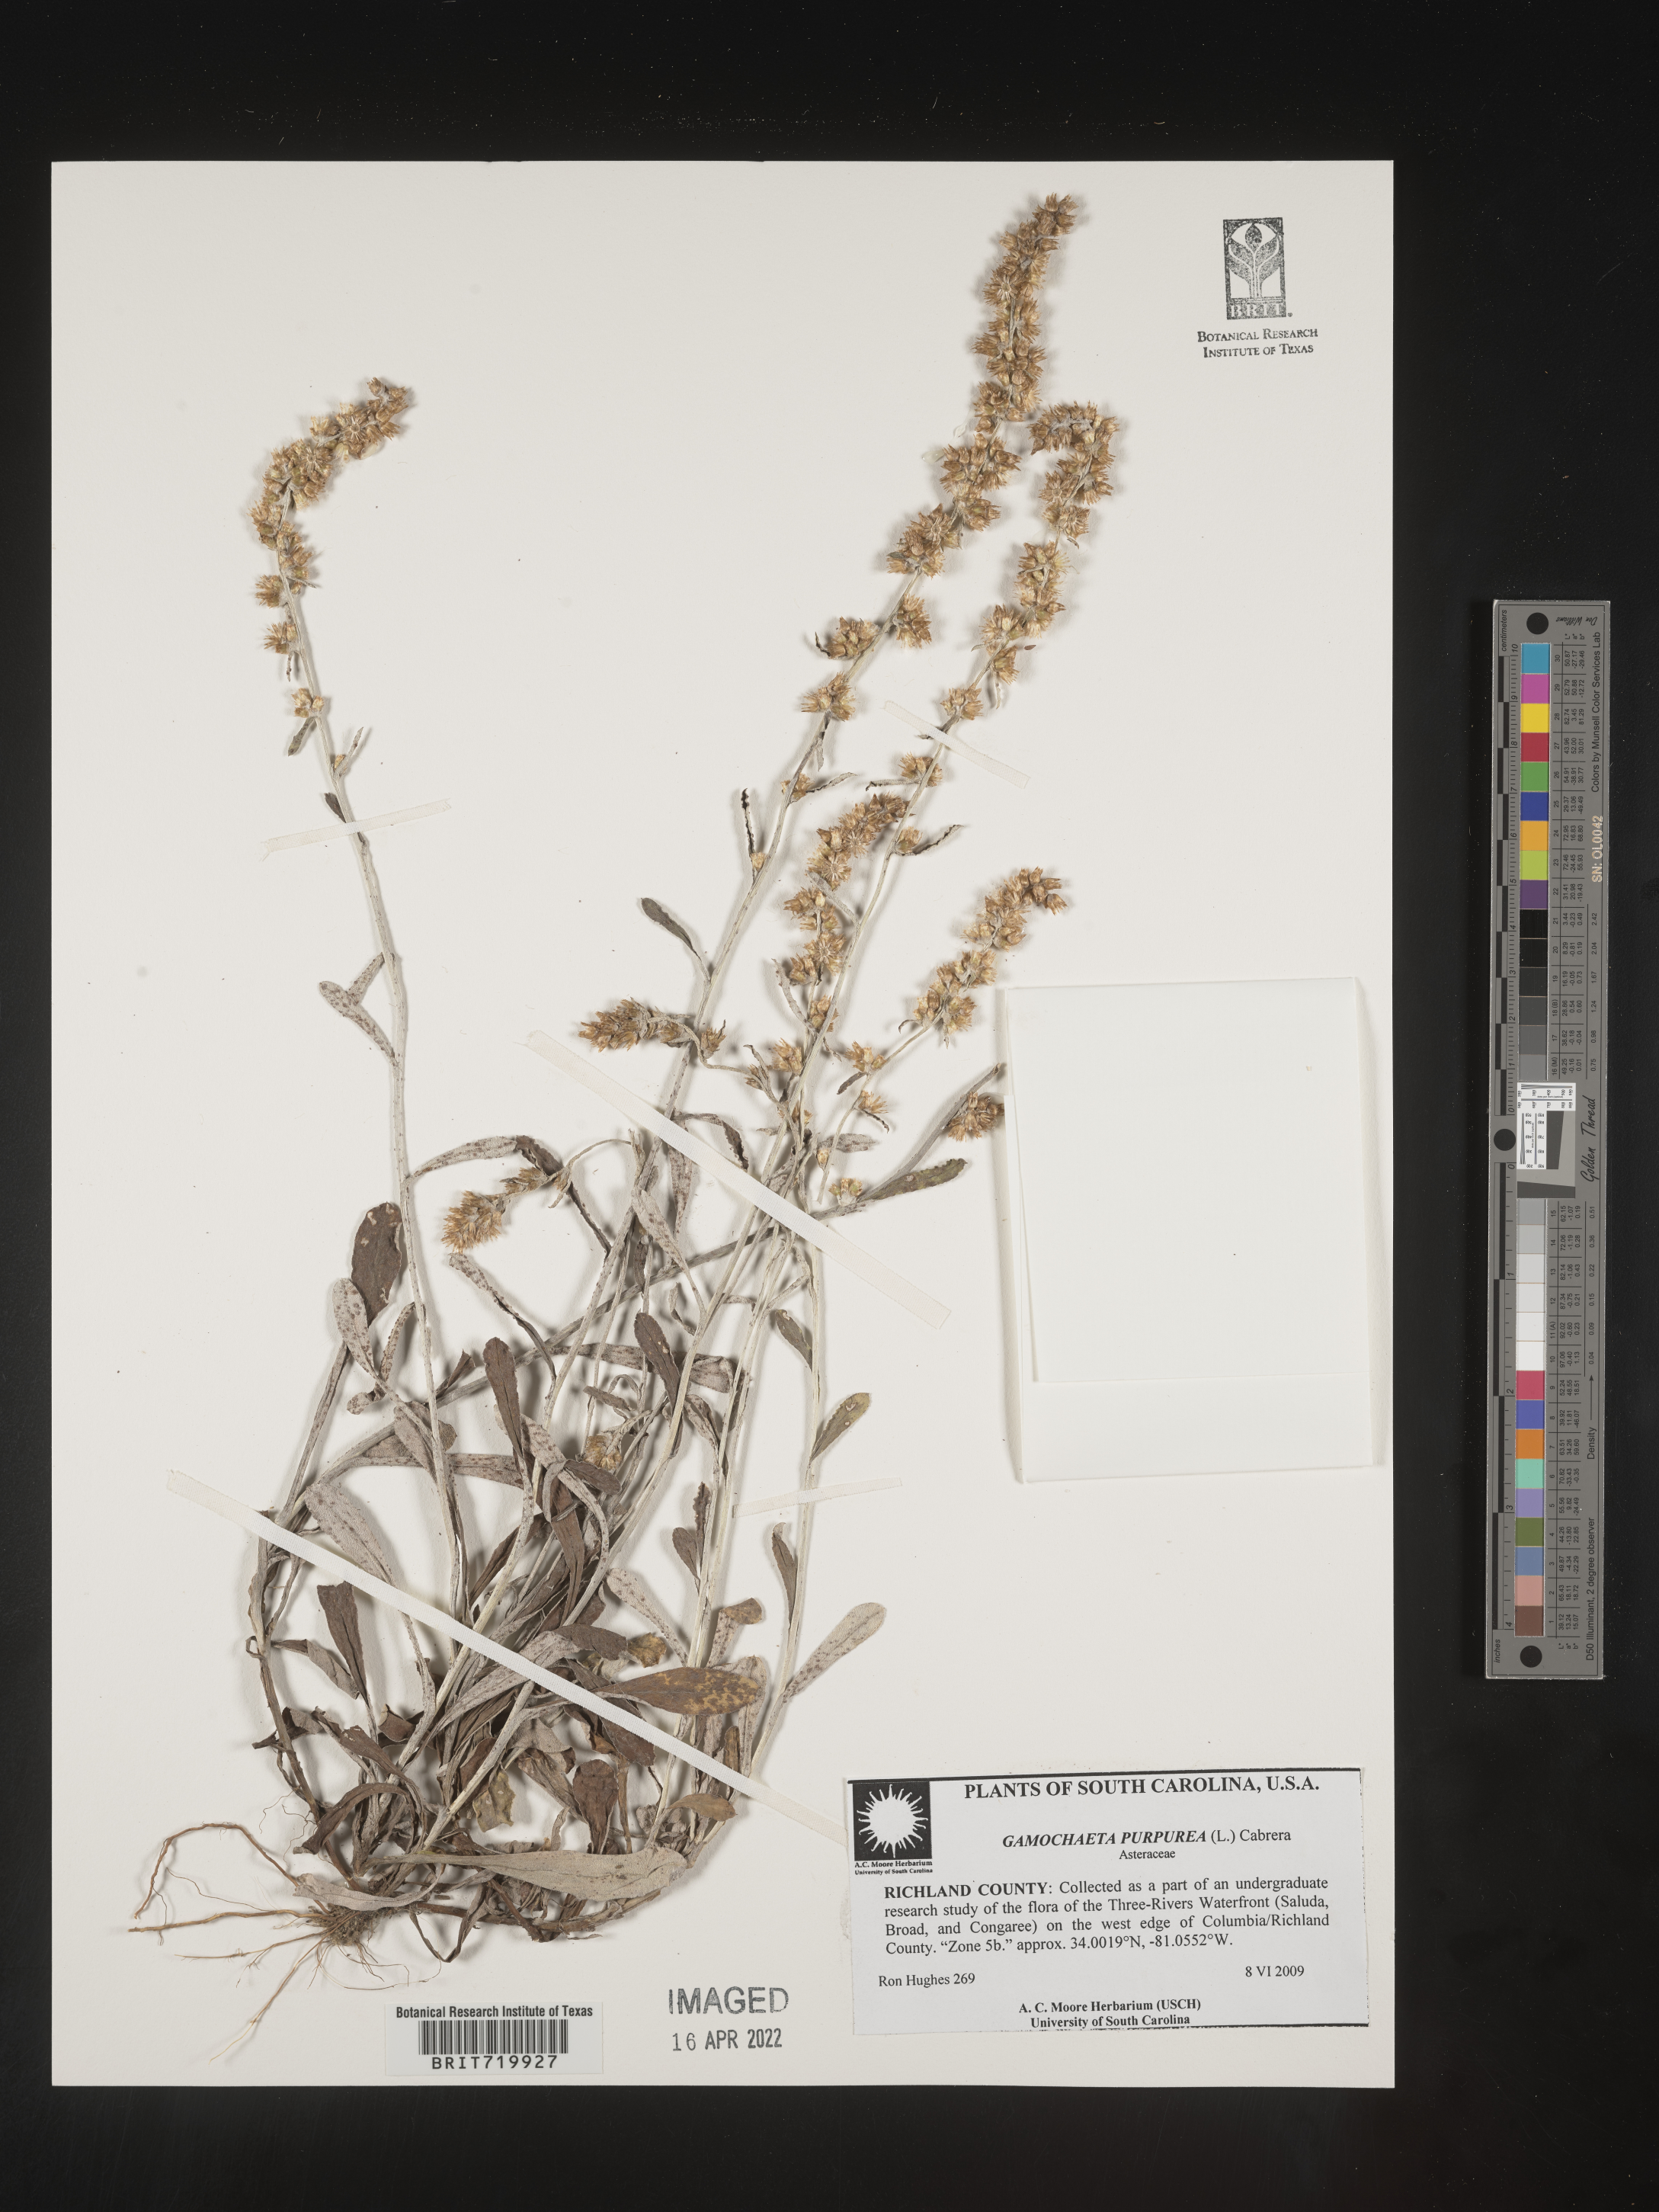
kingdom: Plantae
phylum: Tracheophyta
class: Magnoliopsida
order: Asterales
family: Asteraceae
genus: Gamochaeta
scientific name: Gamochaeta purpurea
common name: Purple cudweed
